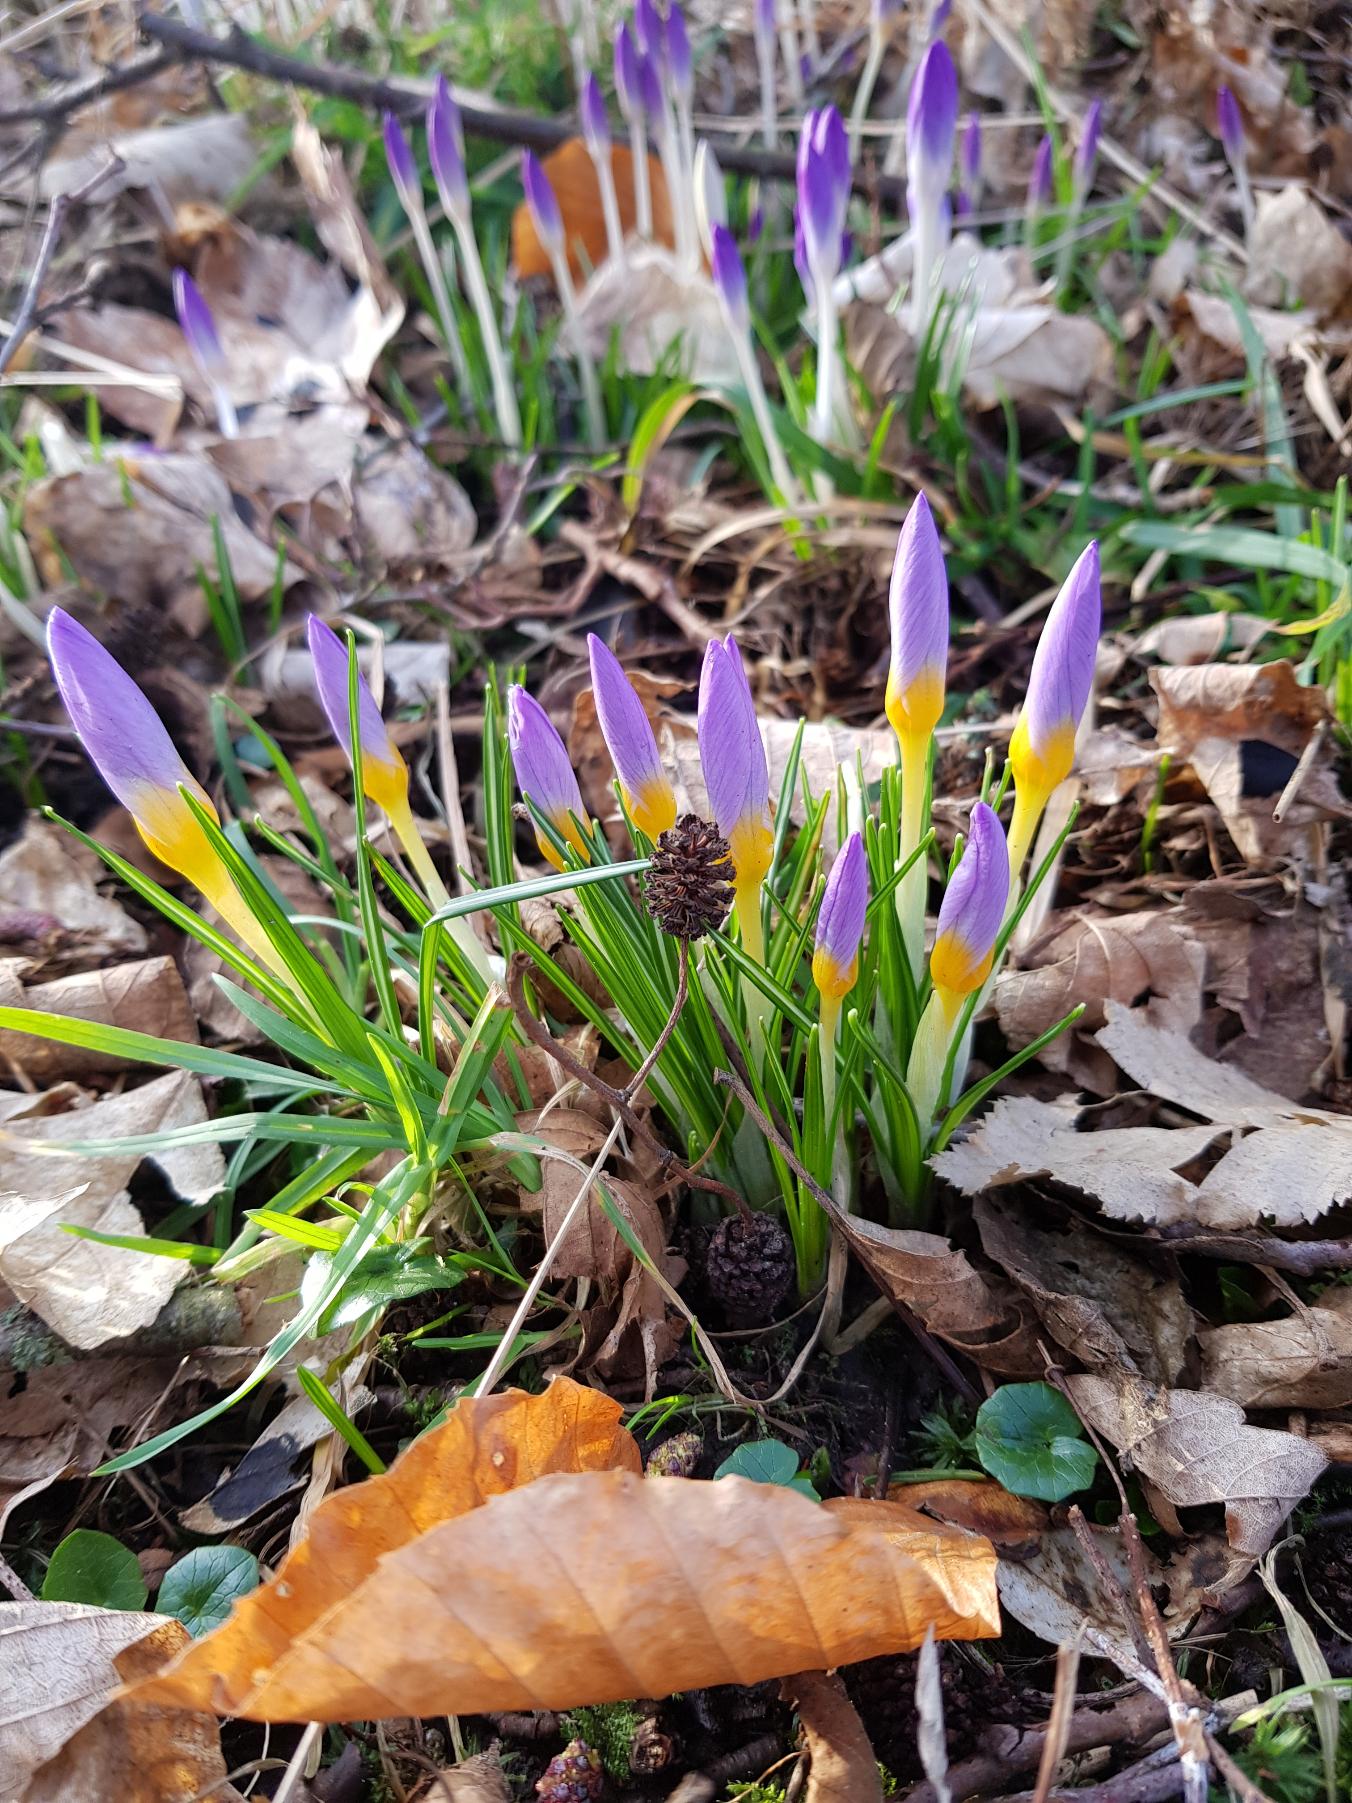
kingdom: Plantae
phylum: Tracheophyta
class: Liliopsida
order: Asparagales
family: Iridaceae
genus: Crocus
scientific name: Crocus sieberi
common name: Græsk krokus
